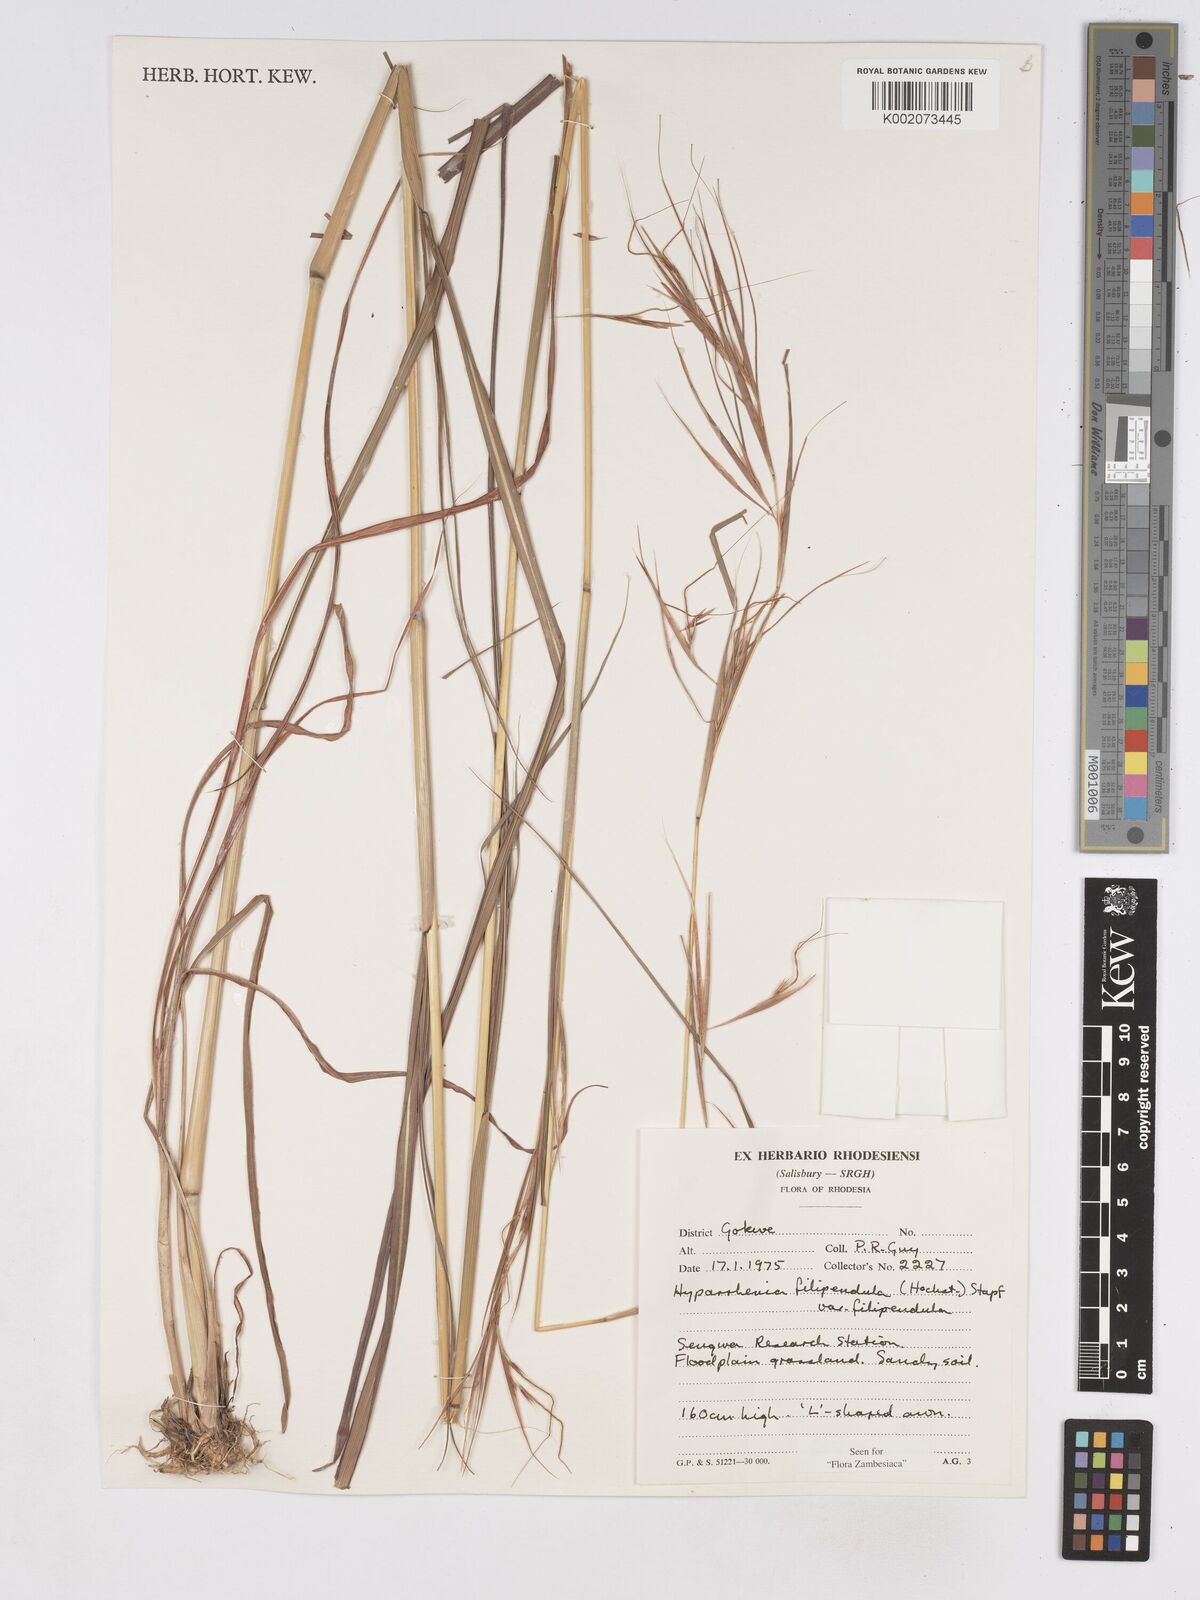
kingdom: Plantae
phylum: Tracheophyta
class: Liliopsida
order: Poales
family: Poaceae
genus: Hyparrhenia
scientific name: Hyparrhenia filipendula
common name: Tambookie grass
